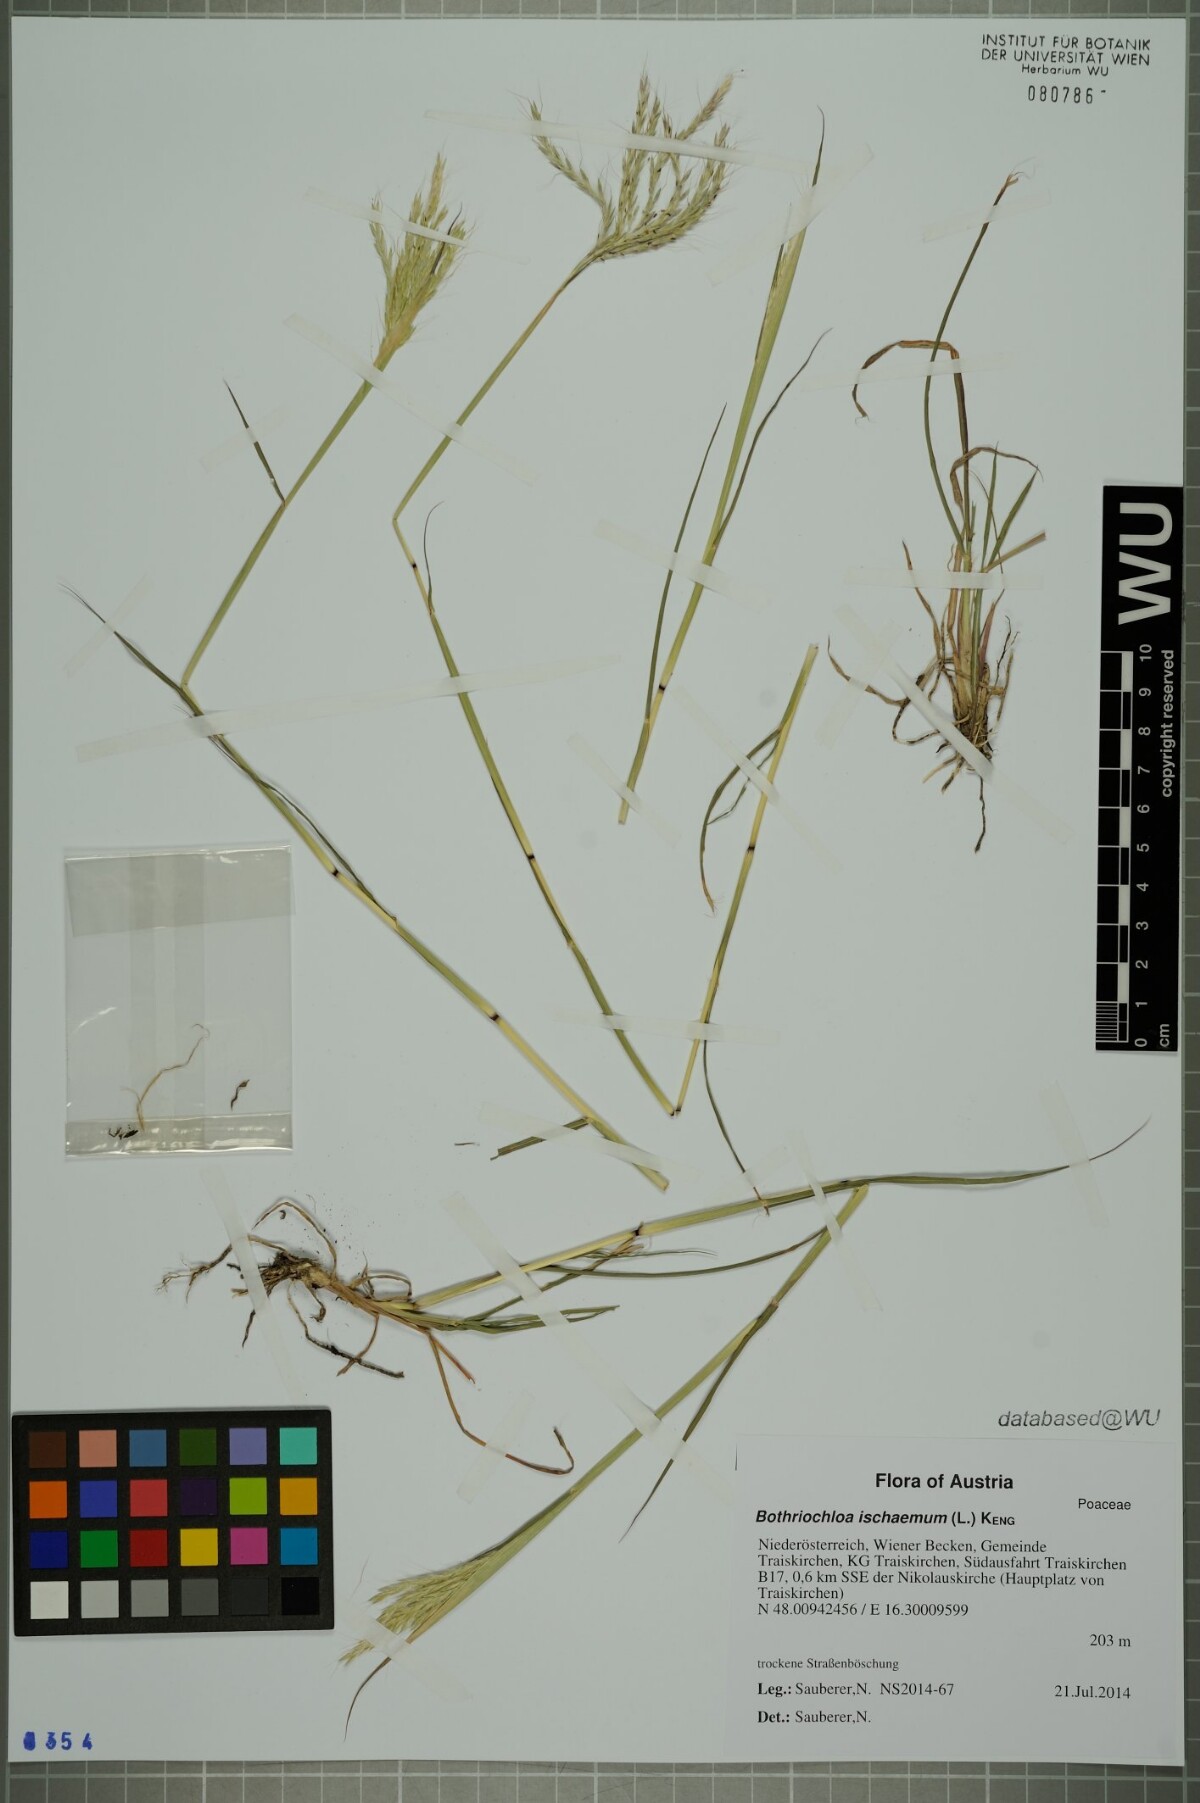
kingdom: Plantae
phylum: Tracheophyta
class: Liliopsida
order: Poales
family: Poaceae
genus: Bothriochloa
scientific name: Bothriochloa ischaemum
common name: Yellow bluestem
